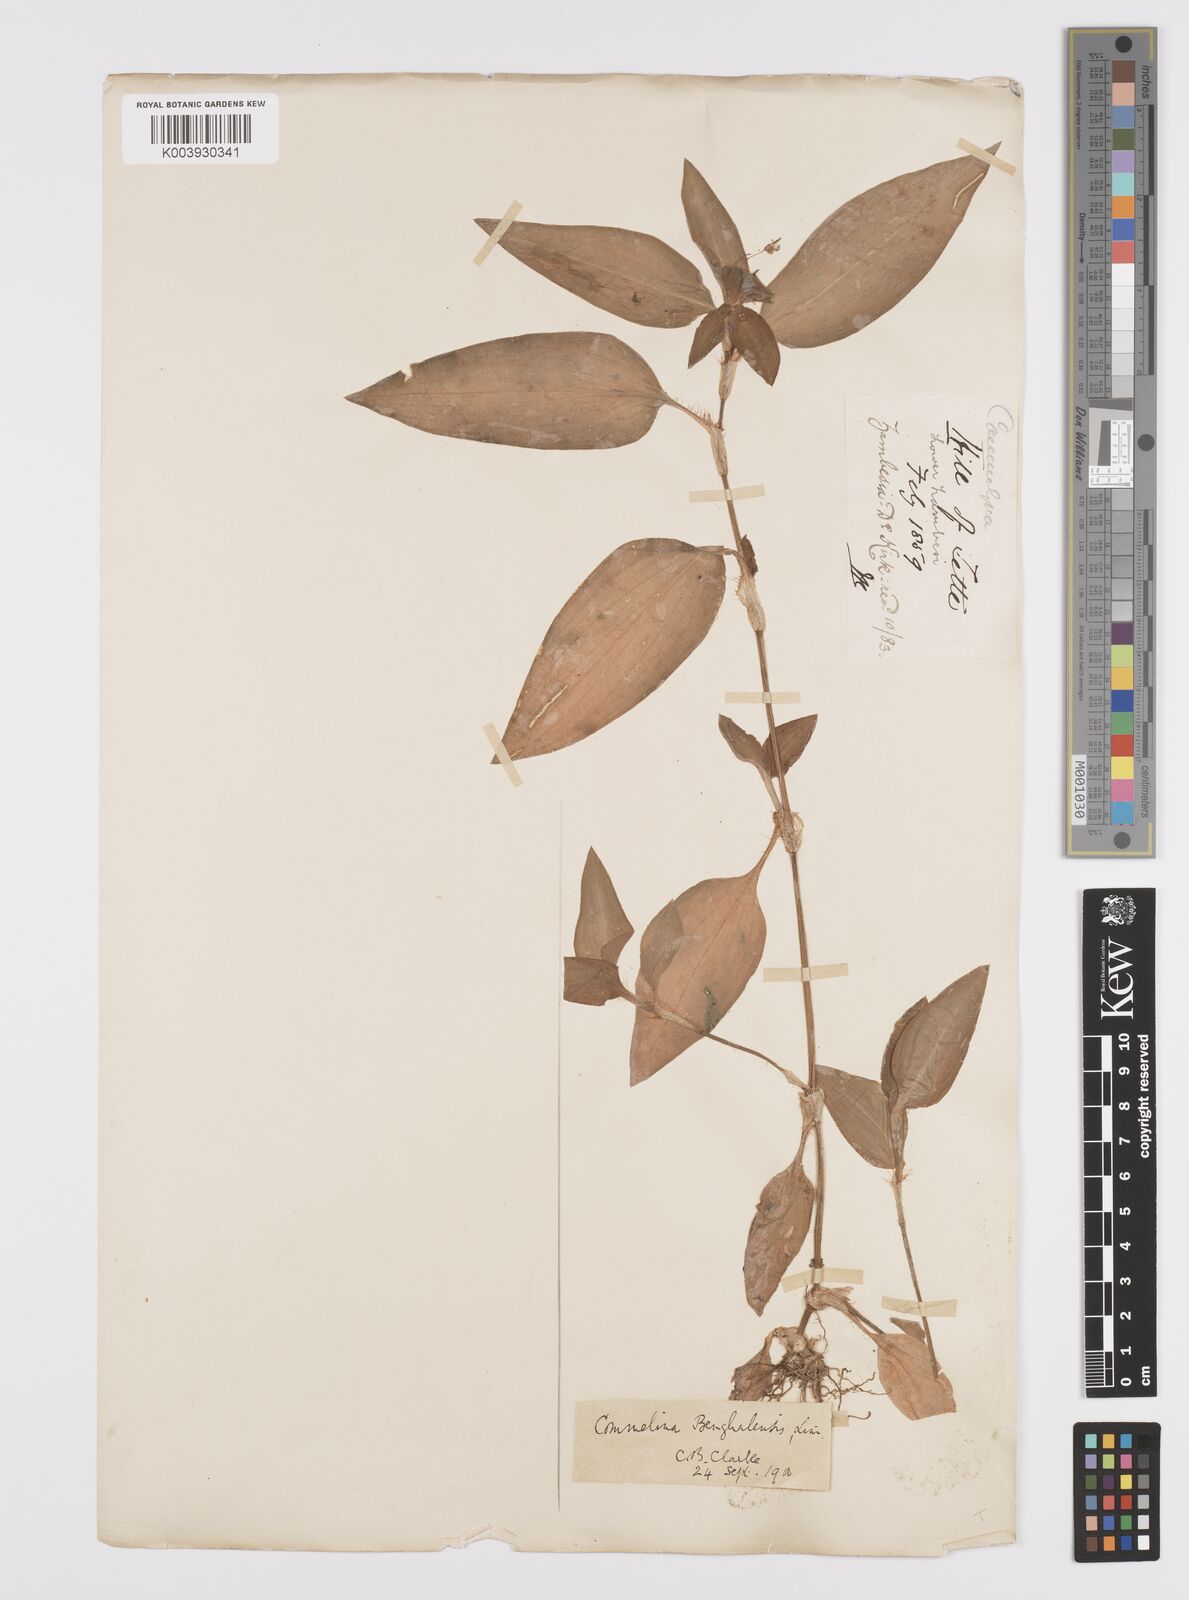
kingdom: Plantae
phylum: Tracheophyta
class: Liliopsida
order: Commelinales
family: Commelinaceae
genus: Commelina
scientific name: Commelina benghalensis
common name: Jio
